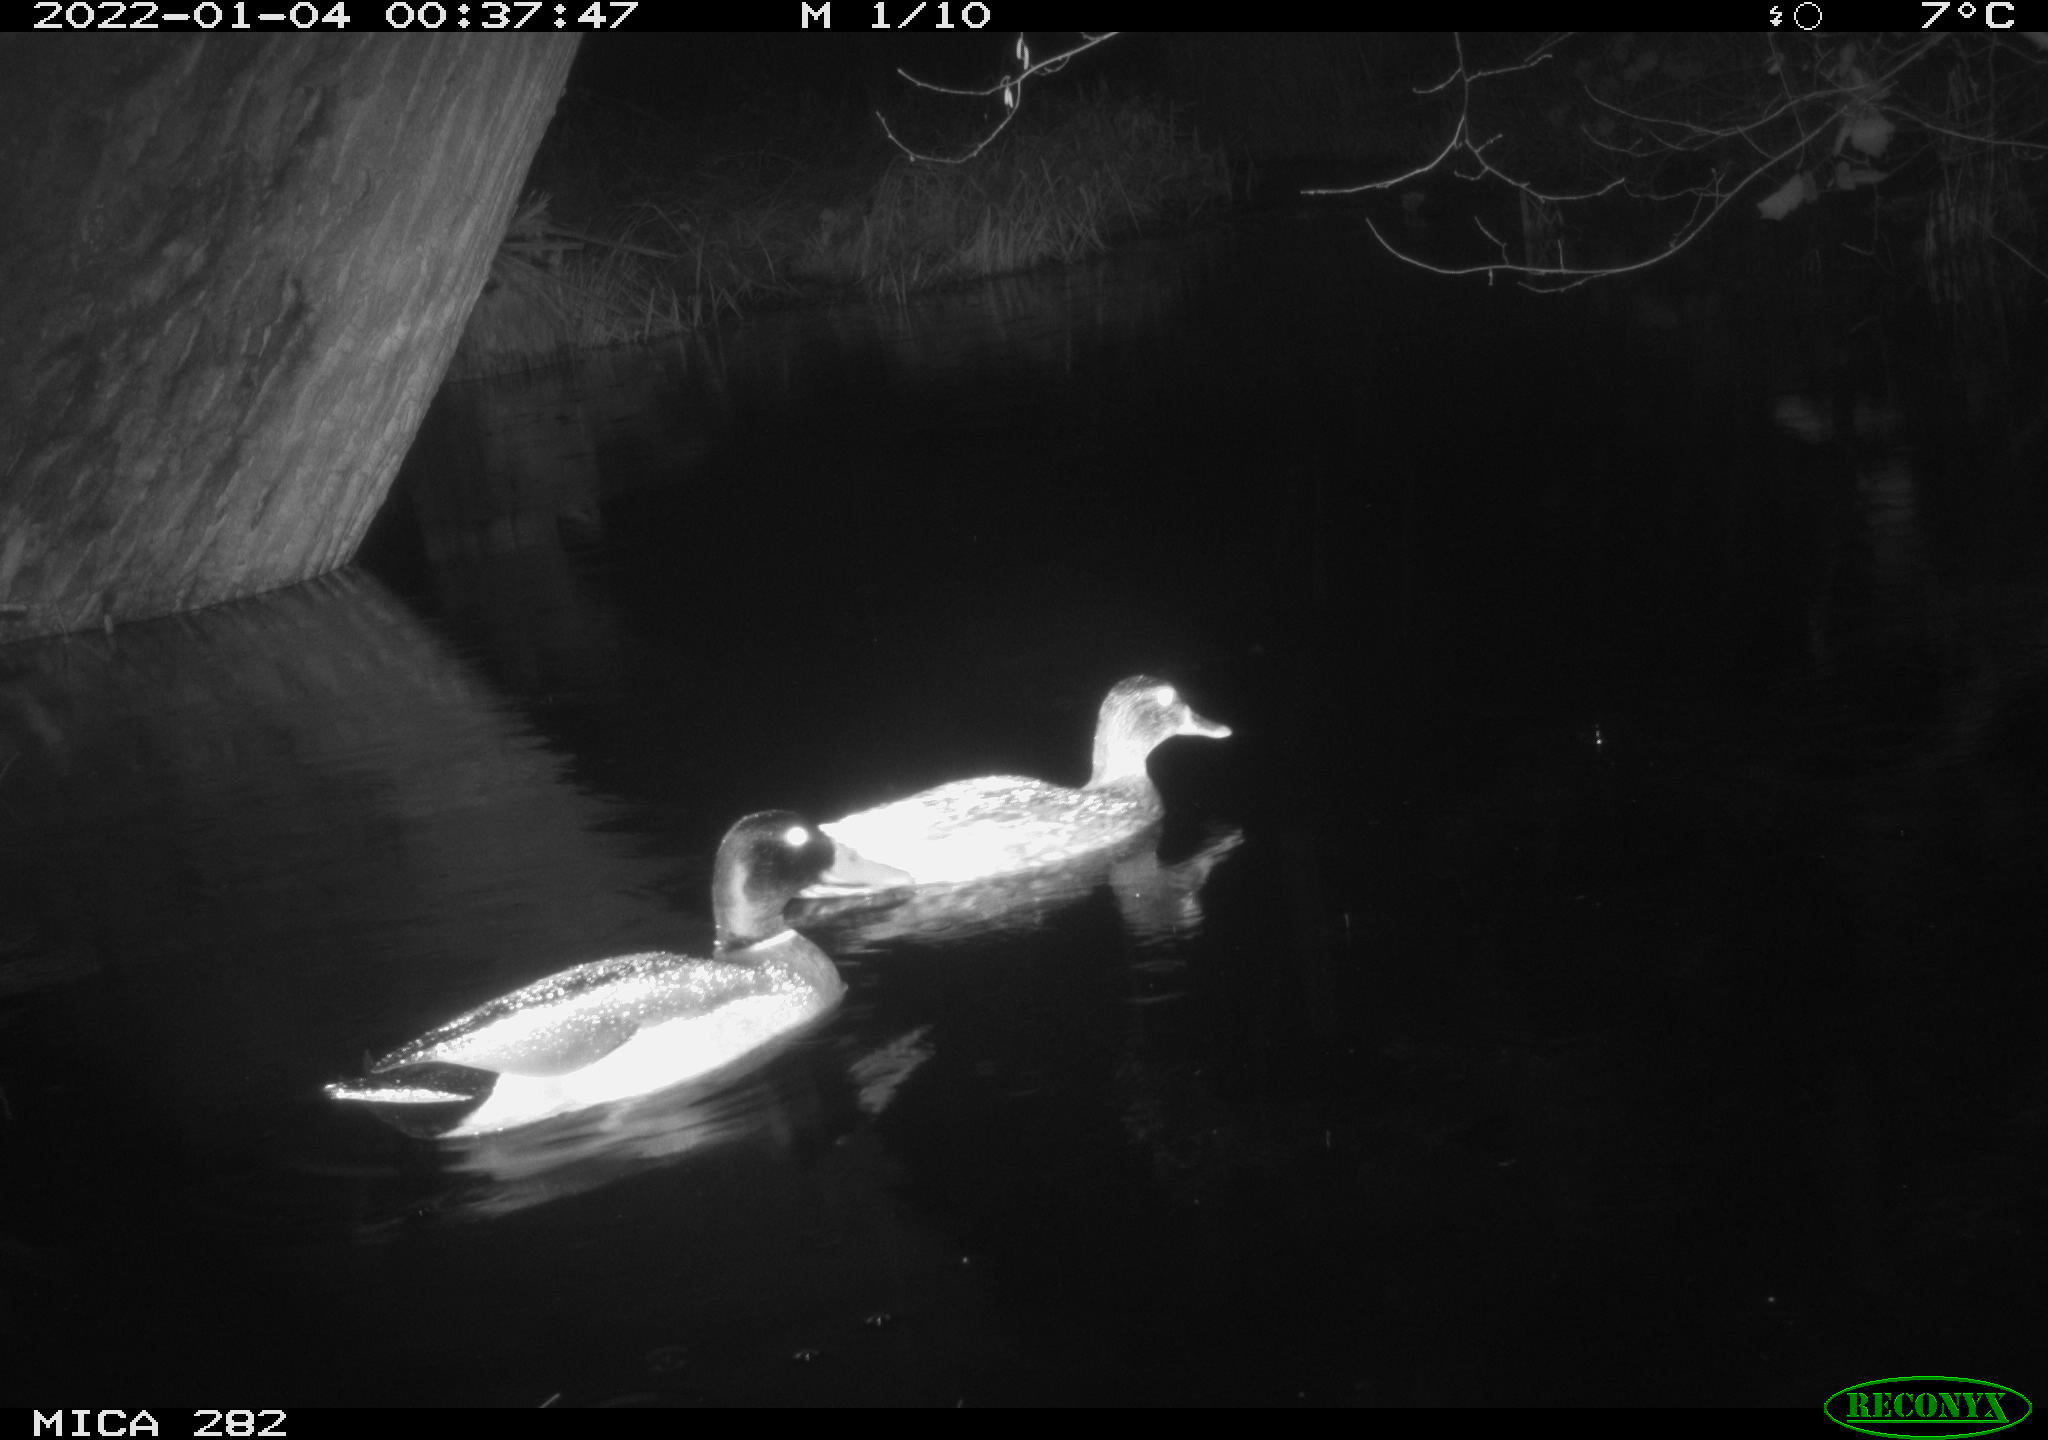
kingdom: Animalia
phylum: Chordata
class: Aves
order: Anseriformes
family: Anatidae
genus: Anas
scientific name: Anas platyrhynchos
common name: Mallard
